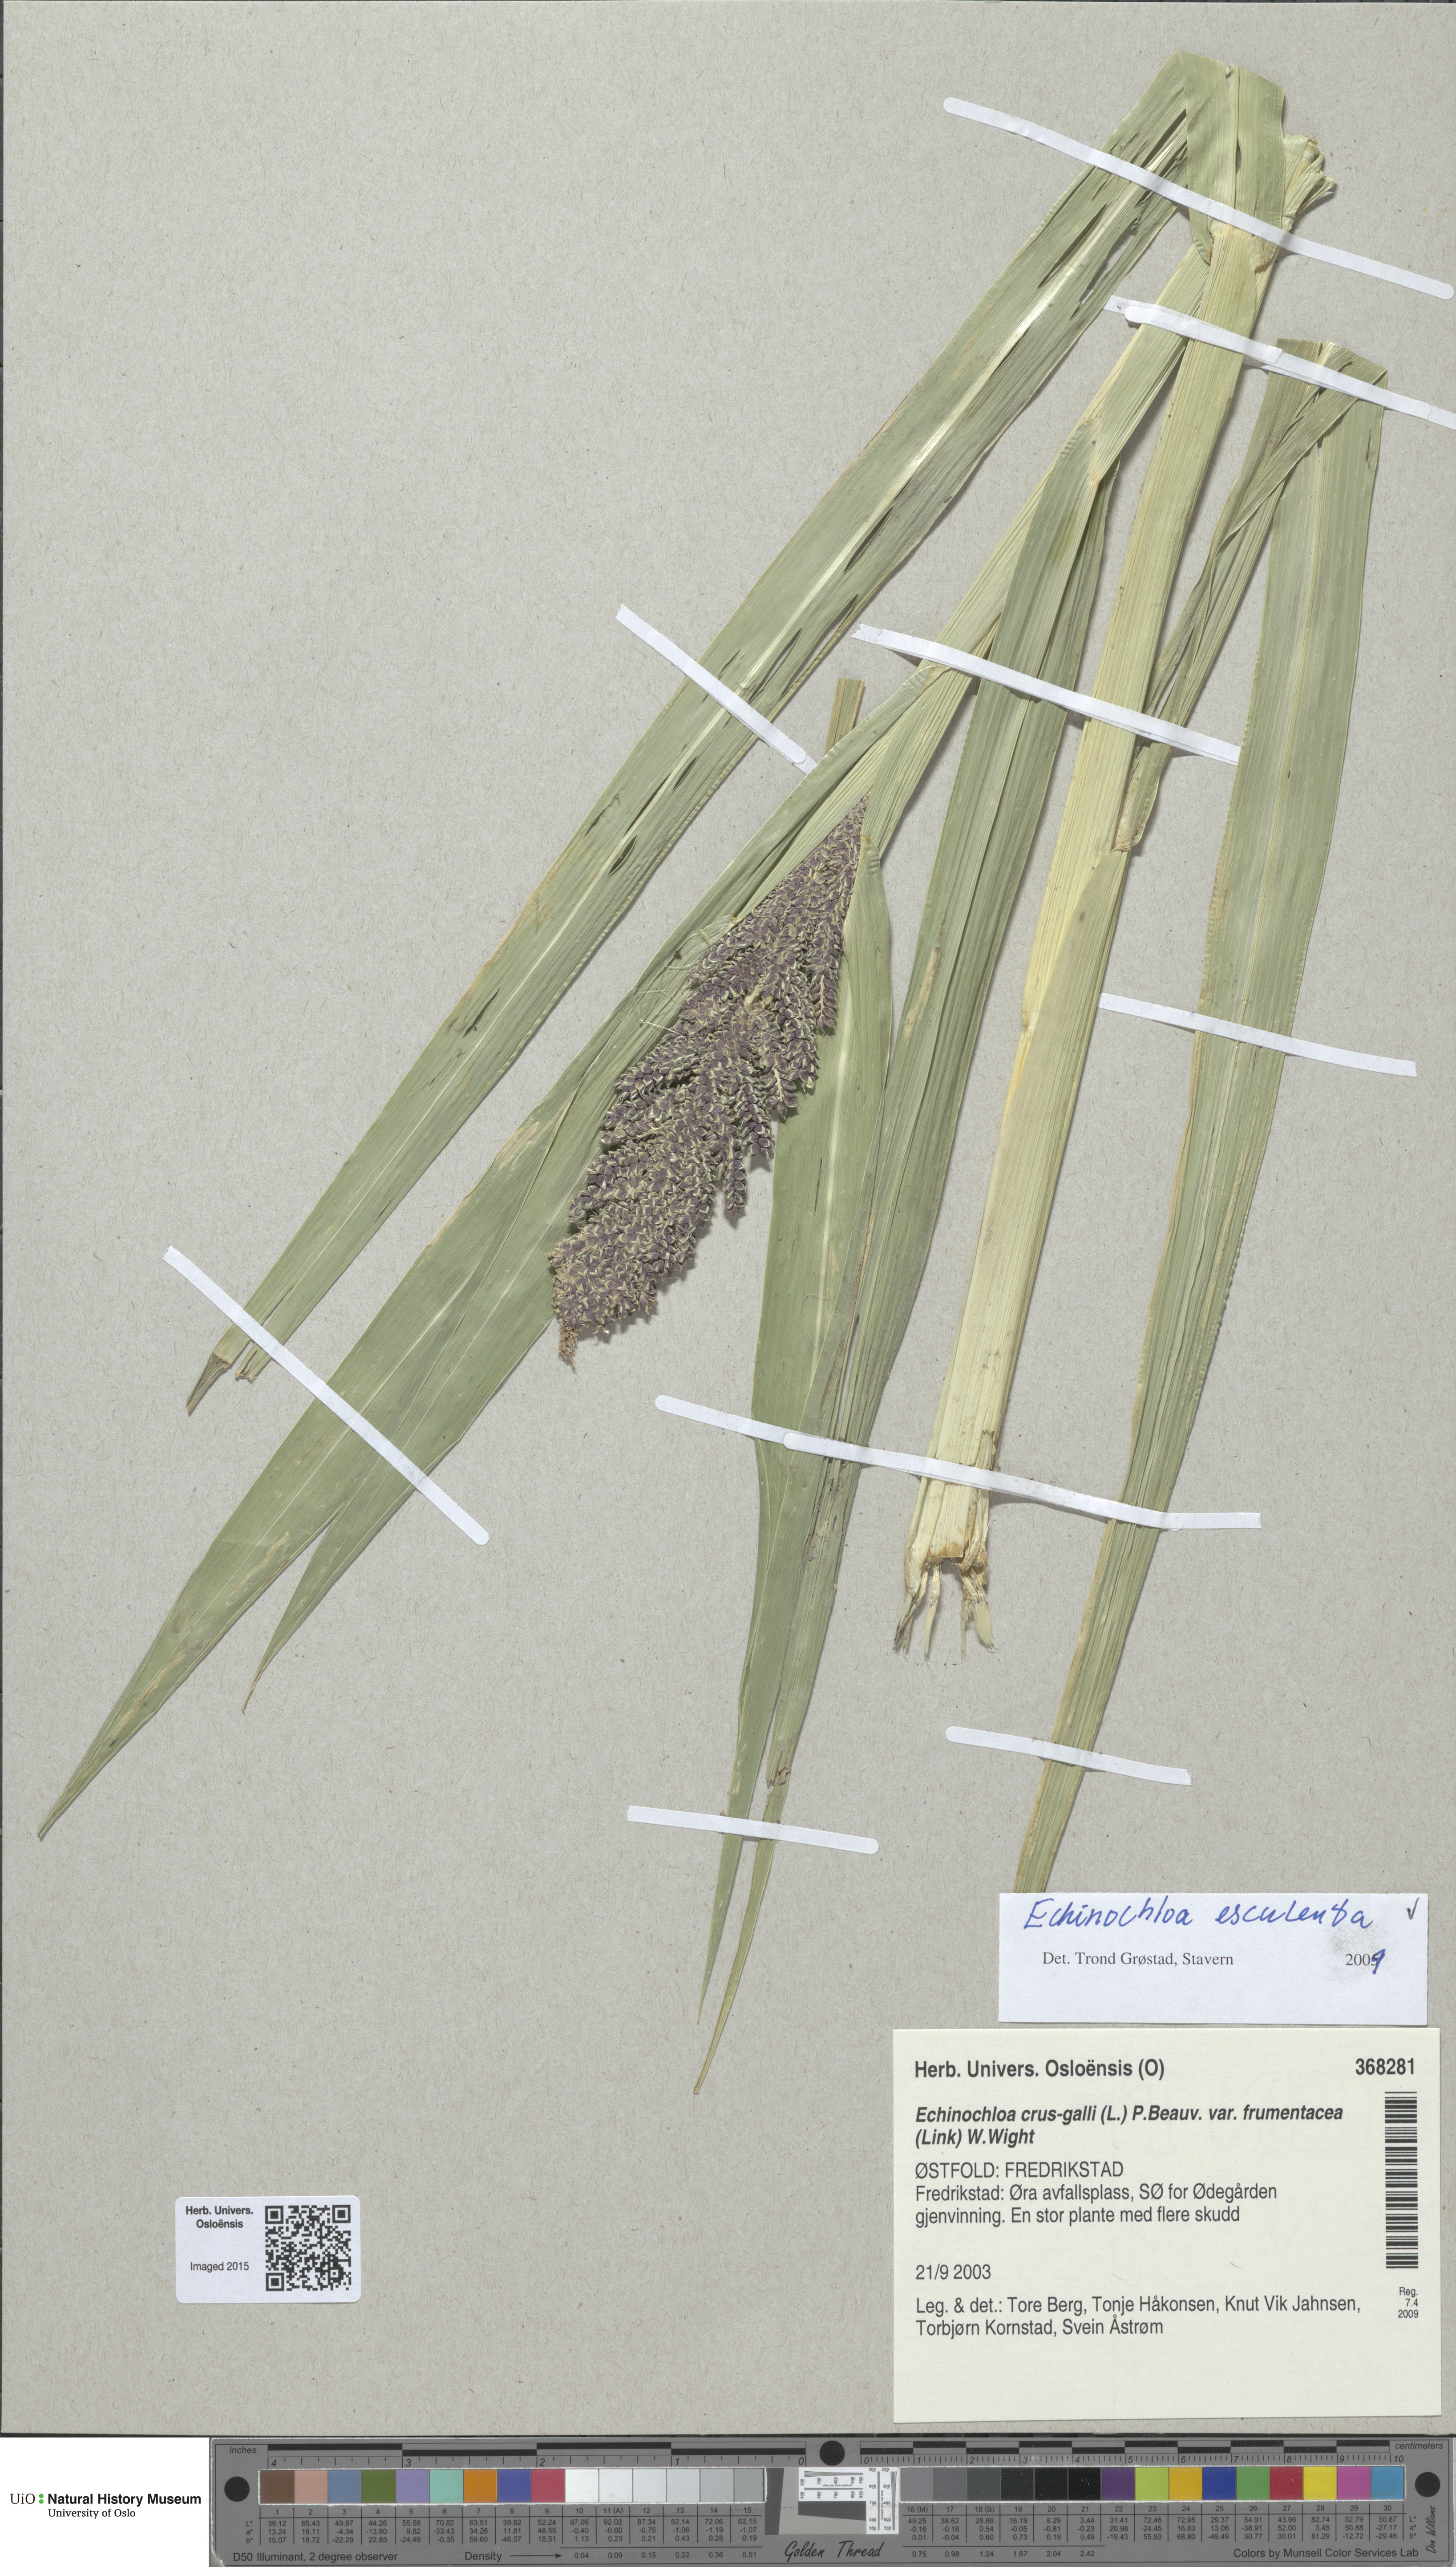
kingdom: Plantae
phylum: Tracheophyta
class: Liliopsida
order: Poales
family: Poaceae
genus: Echinochloa
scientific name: Echinochloa crus-galli
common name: Cockspur
